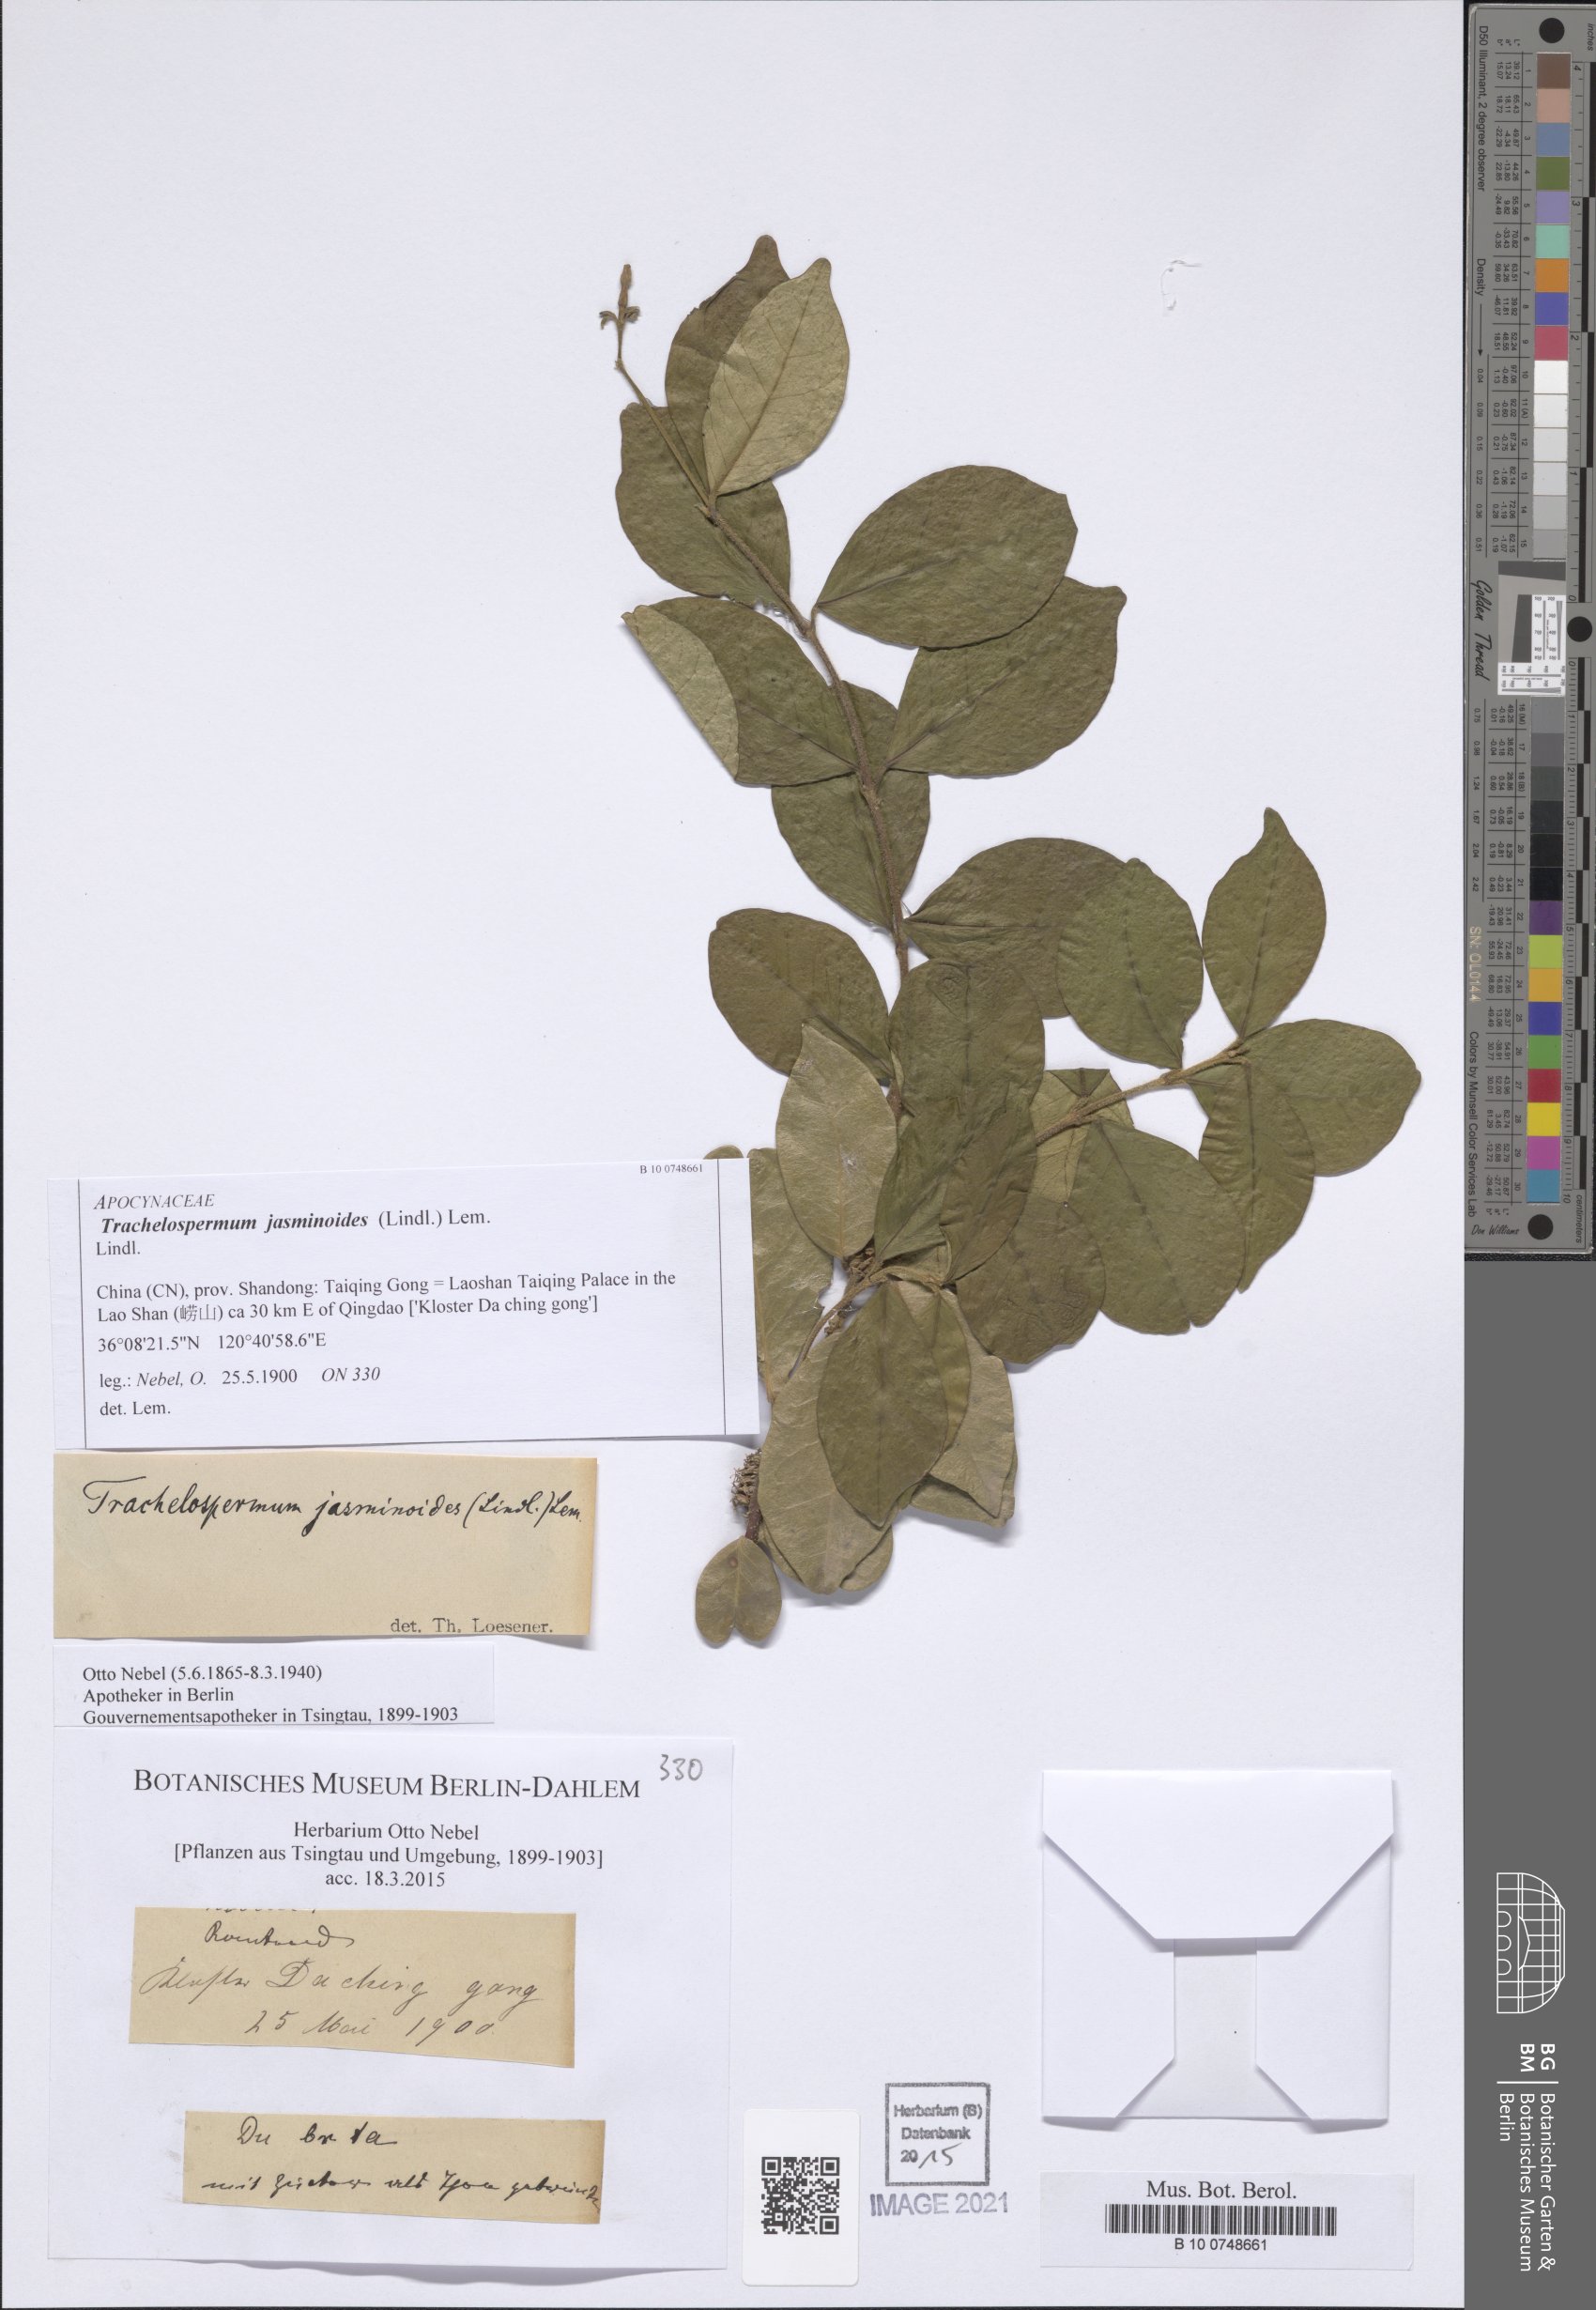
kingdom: Plantae
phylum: Tracheophyta
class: Magnoliopsida
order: Gentianales
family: Apocynaceae
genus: Trachelospermum
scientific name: Trachelospermum jasminoides
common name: Confederate jasmine
